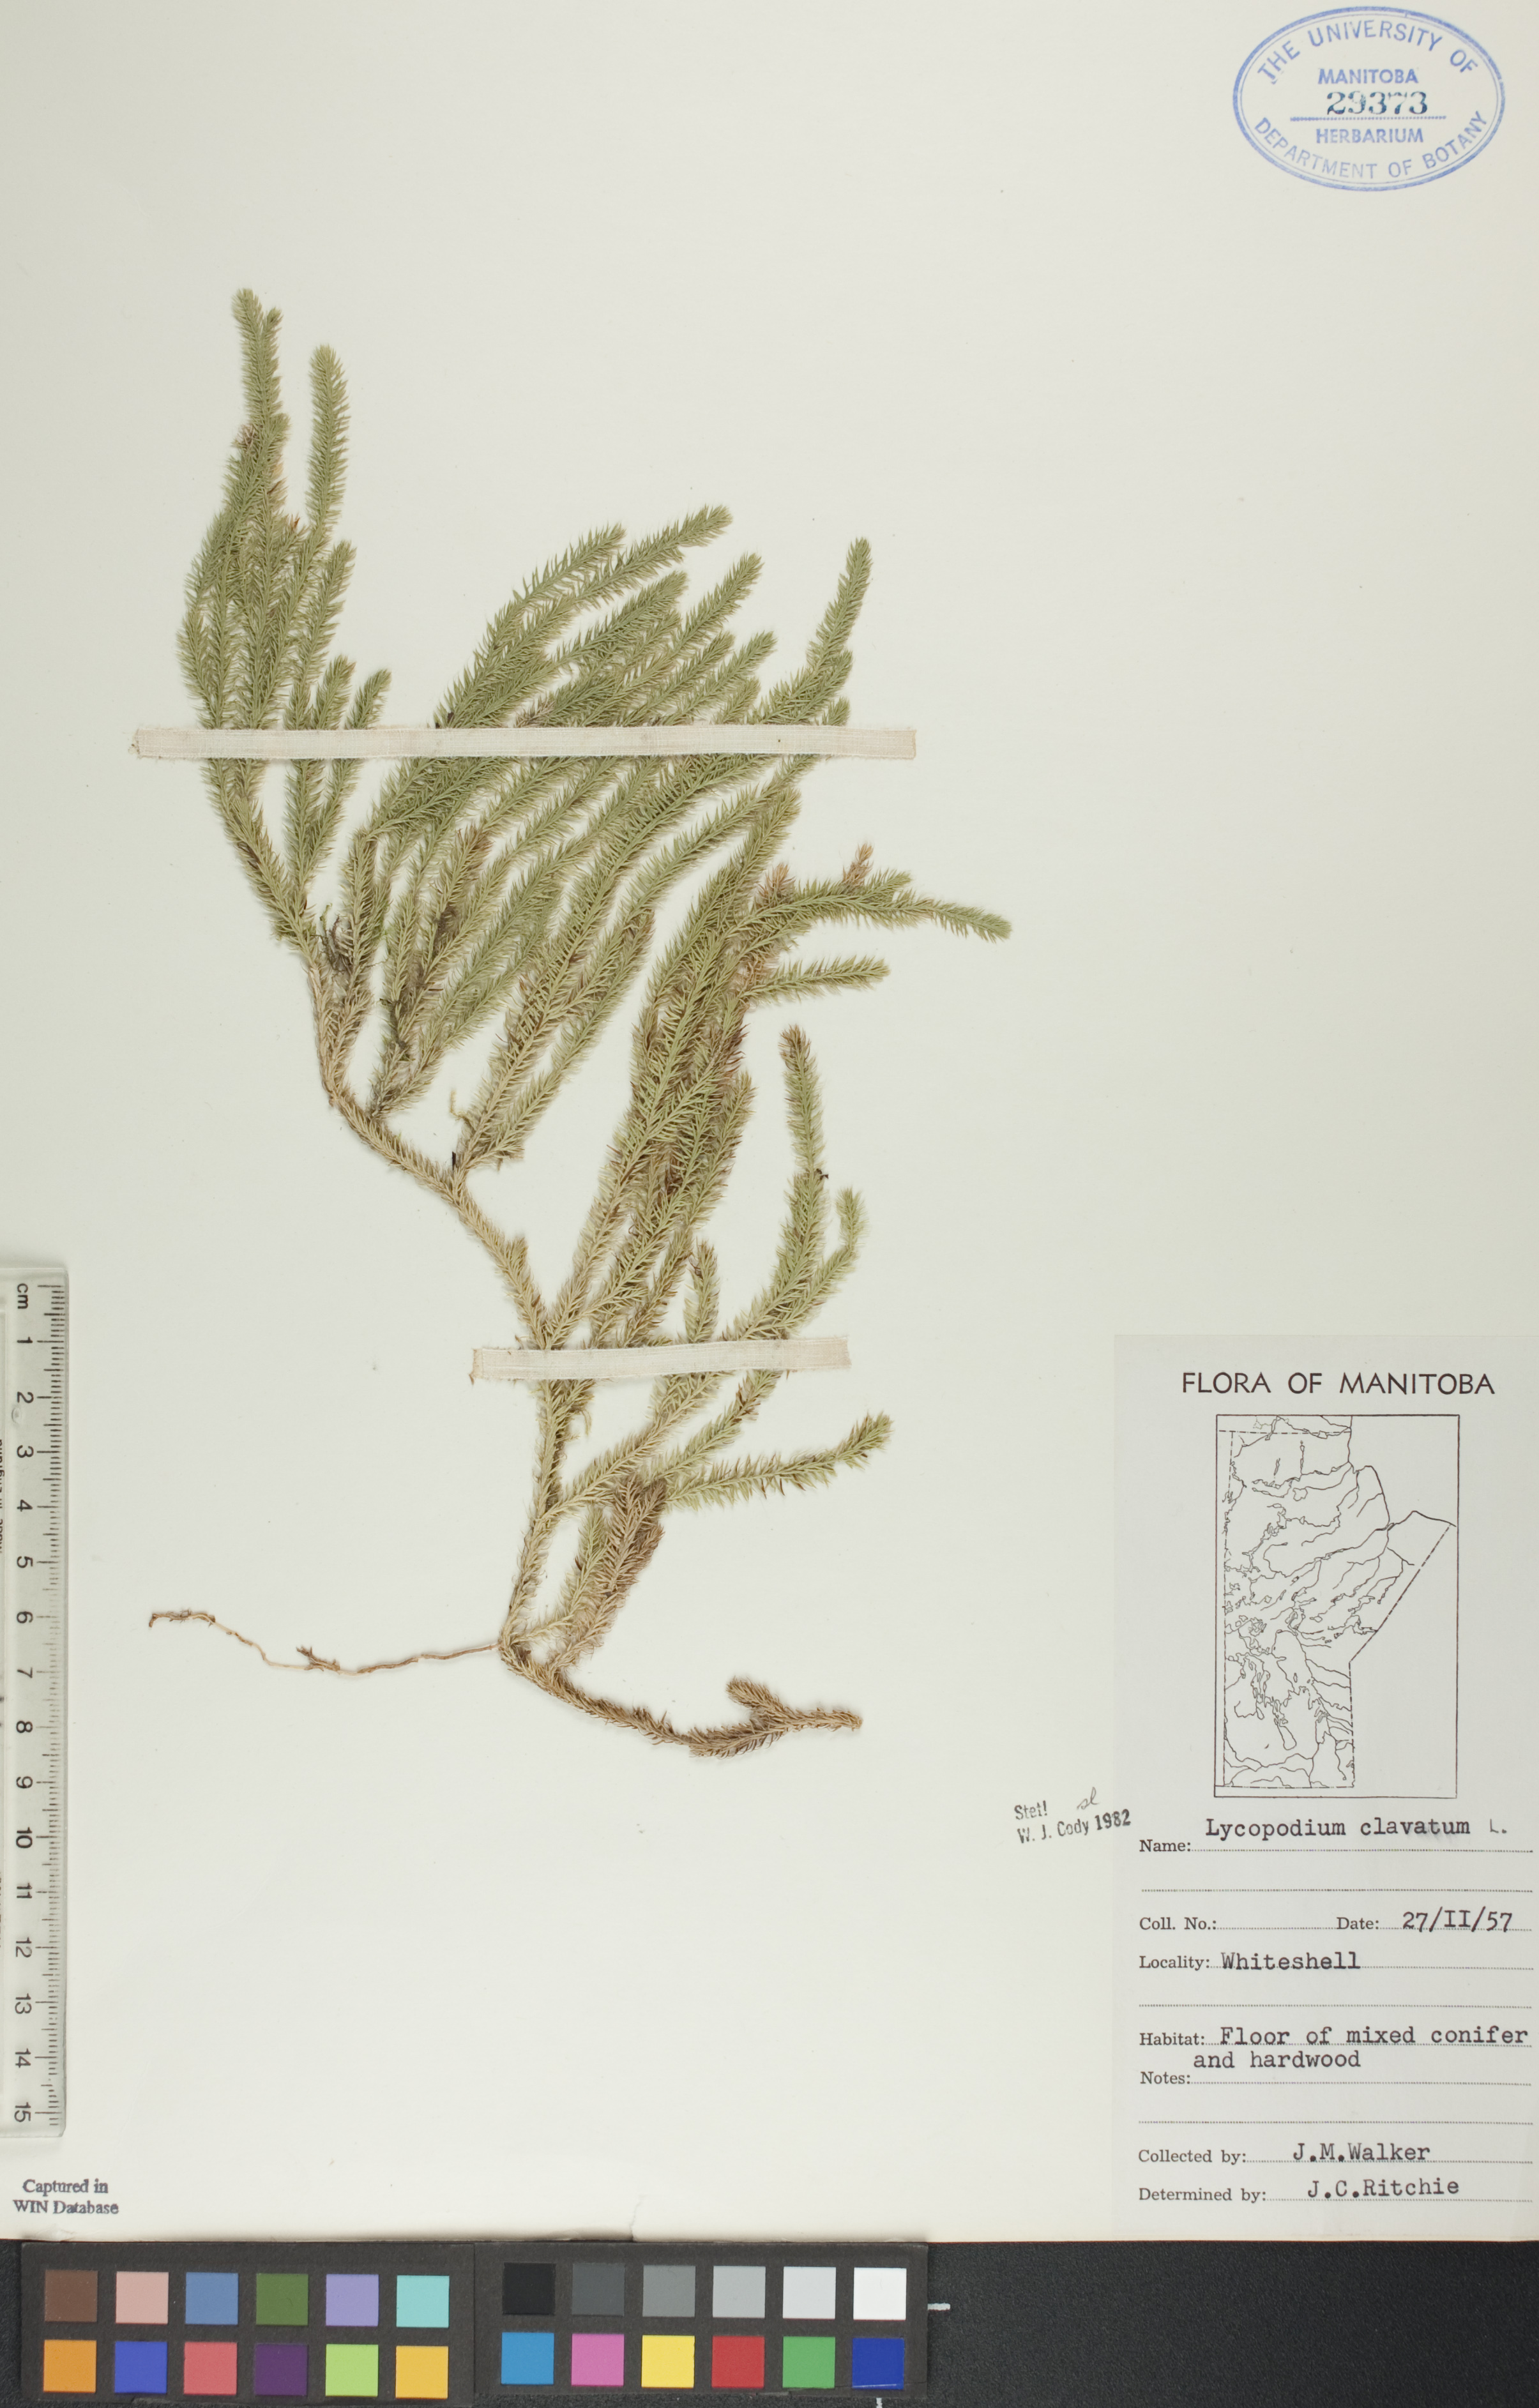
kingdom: Plantae
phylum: Tracheophyta
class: Lycopodiopsida
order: Lycopodiales
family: Lycopodiaceae
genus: Lycopodium
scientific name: Lycopodium clavatum
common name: Stag's-horn clubmoss
